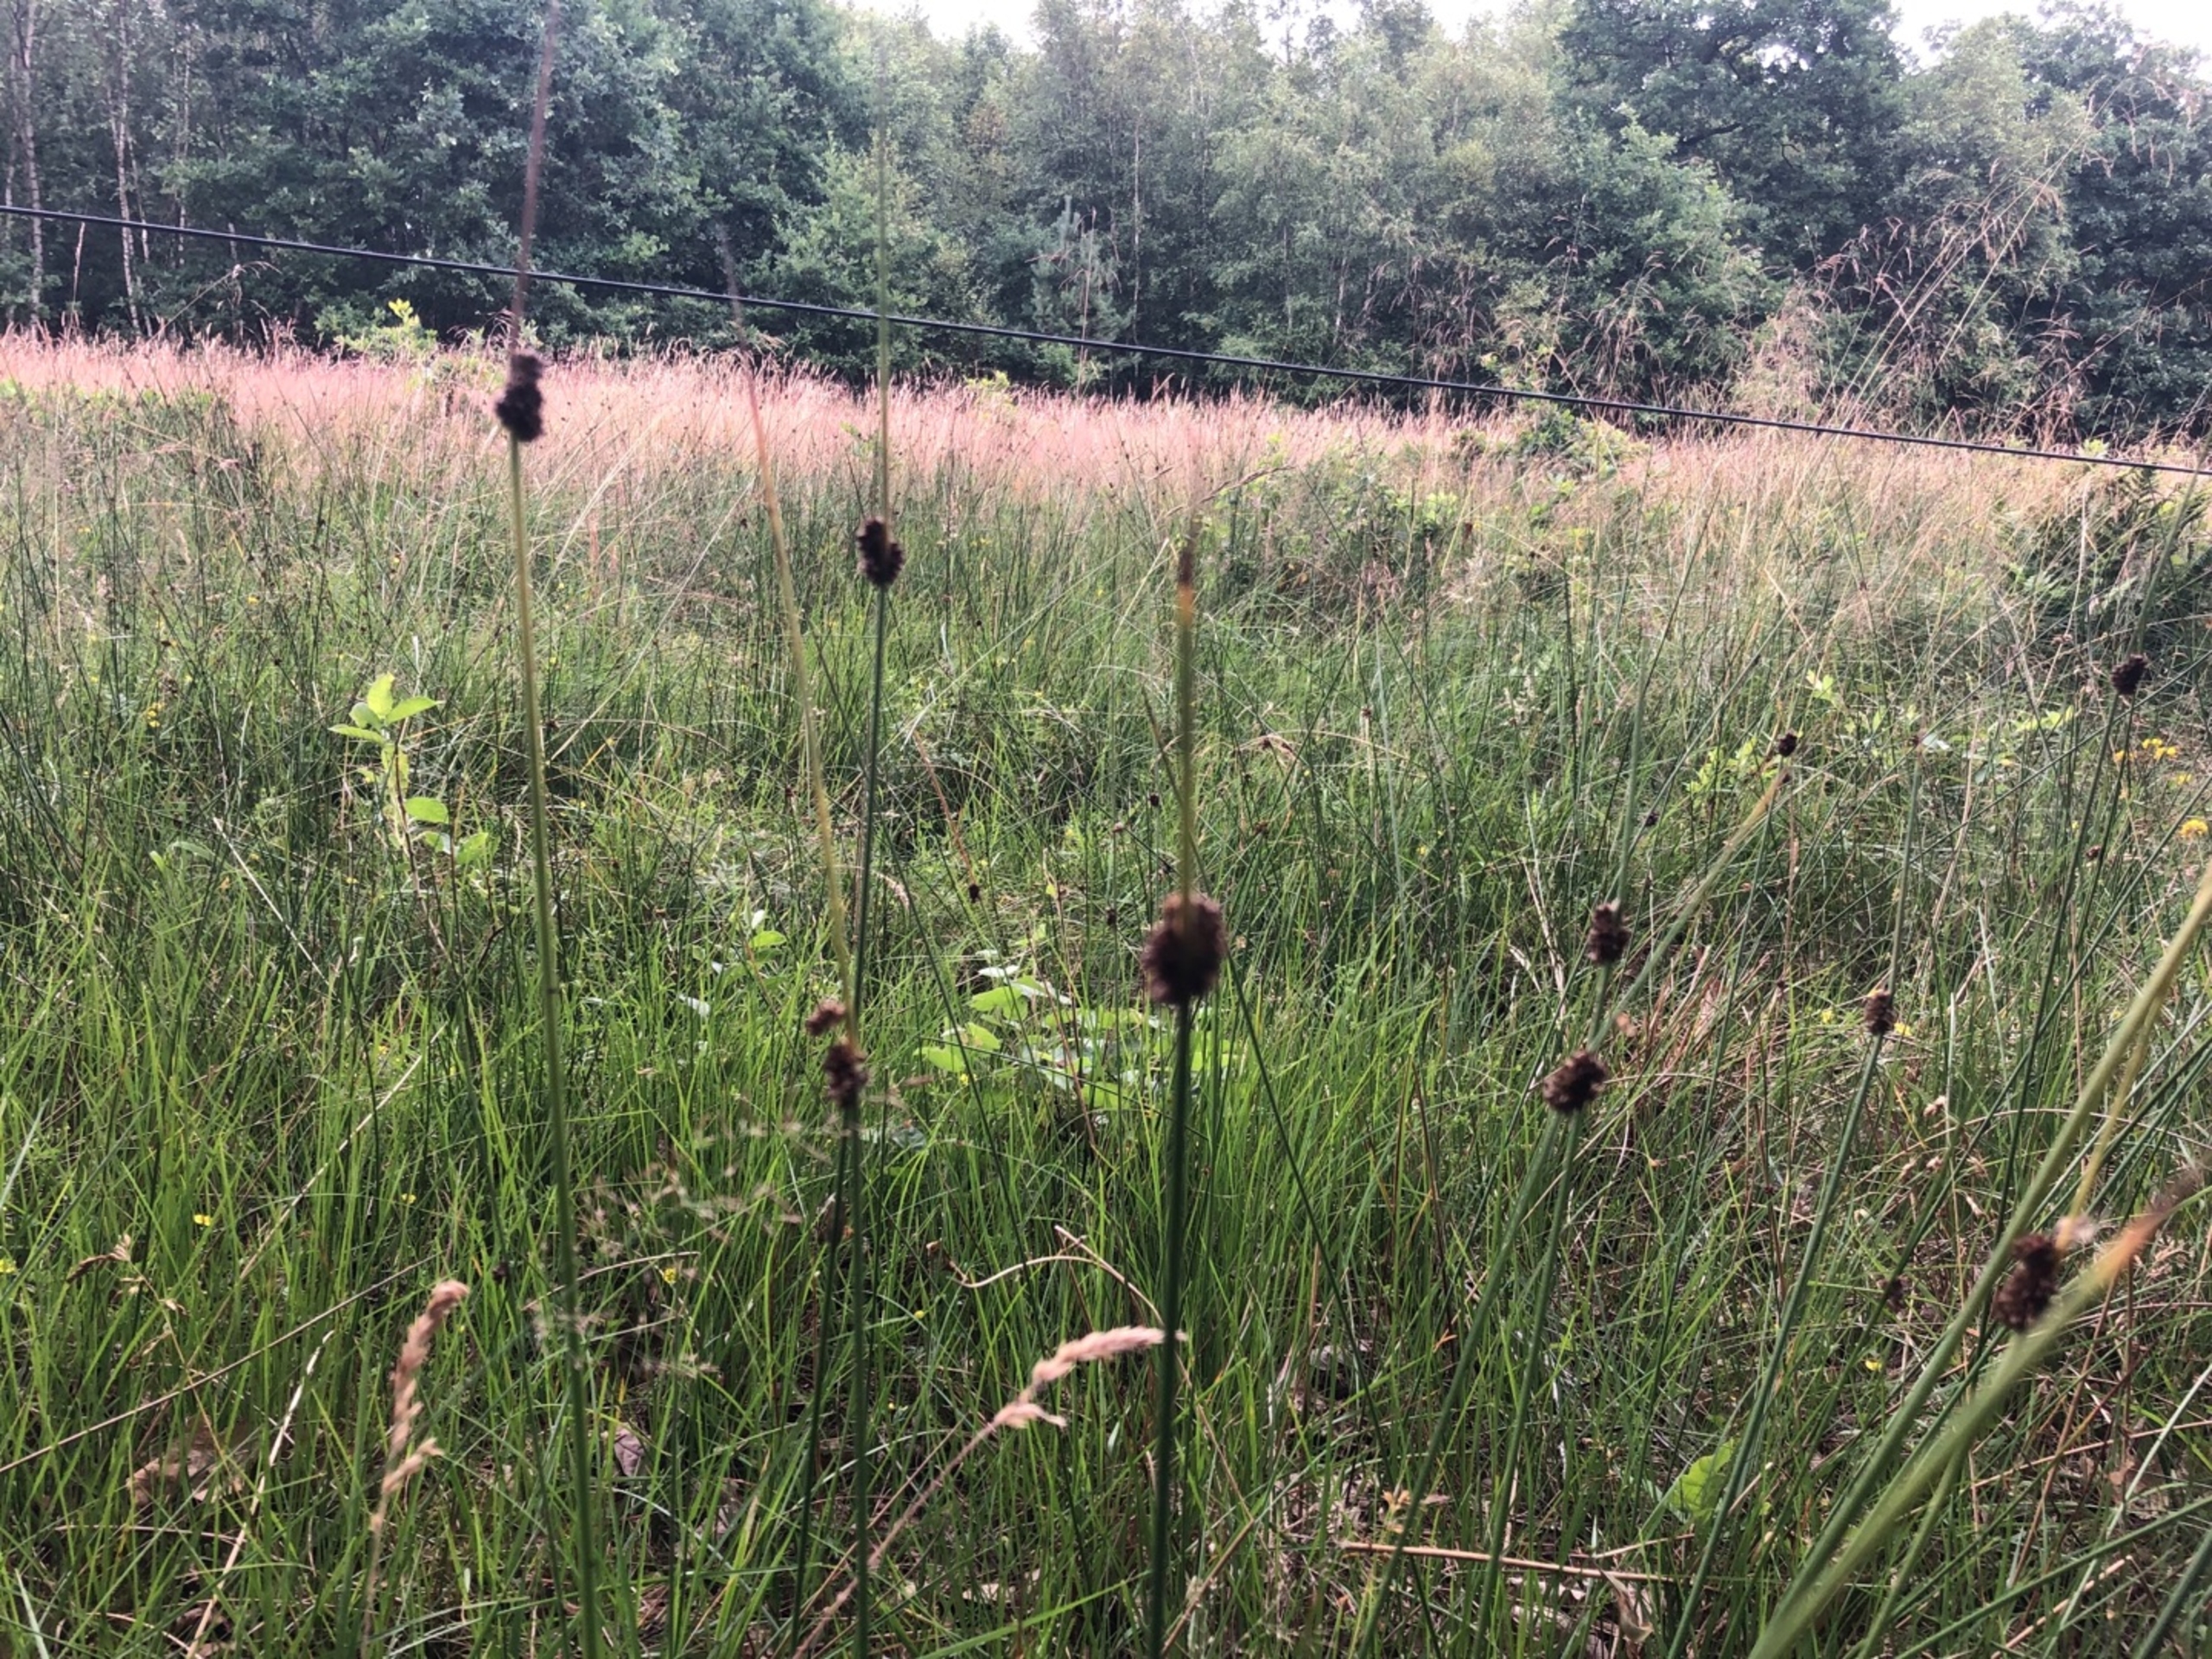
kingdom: Plantae
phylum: Tracheophyta
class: Liliopsida
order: Poales
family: Juncaceae
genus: Juncus
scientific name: Juncus conglomeratus
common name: Knop-siv
